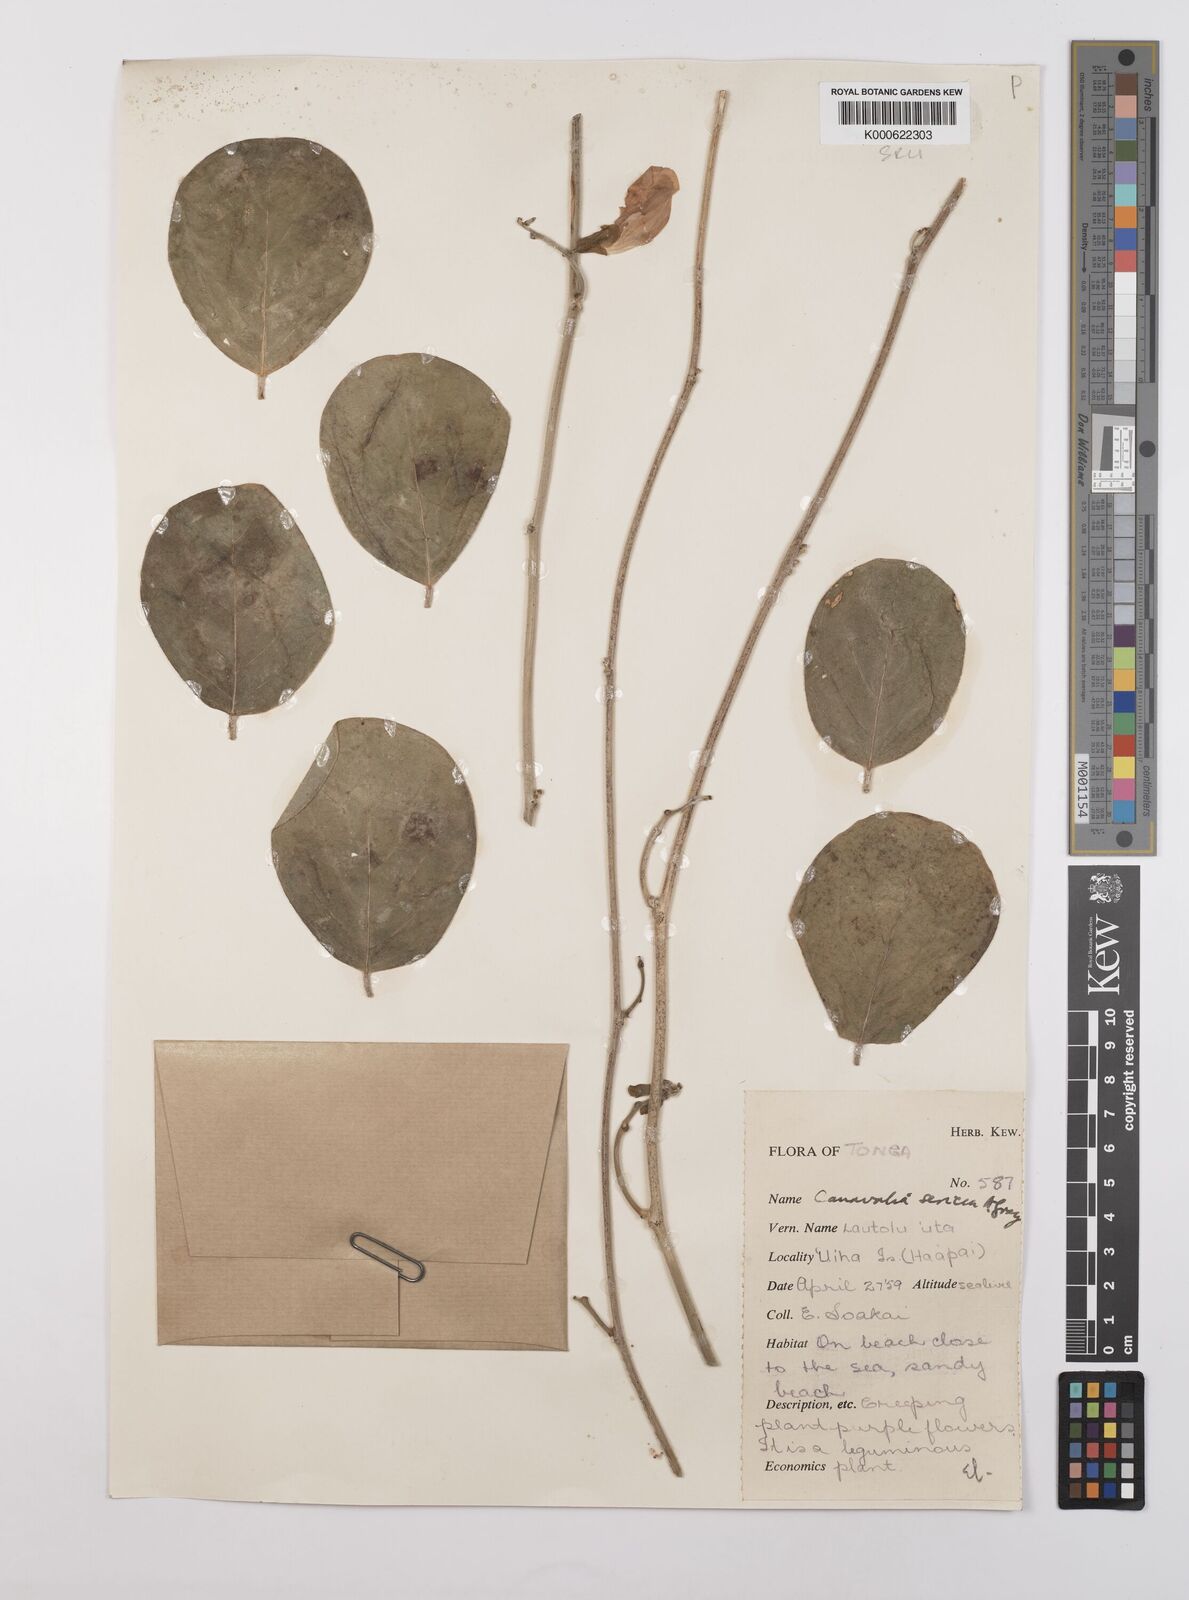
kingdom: Plantae
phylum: Tracheophyta
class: Magnoliopsida
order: Fabales
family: Fabaceae
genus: Canavalia
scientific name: Canavalia sericea
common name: Silky jackbean
